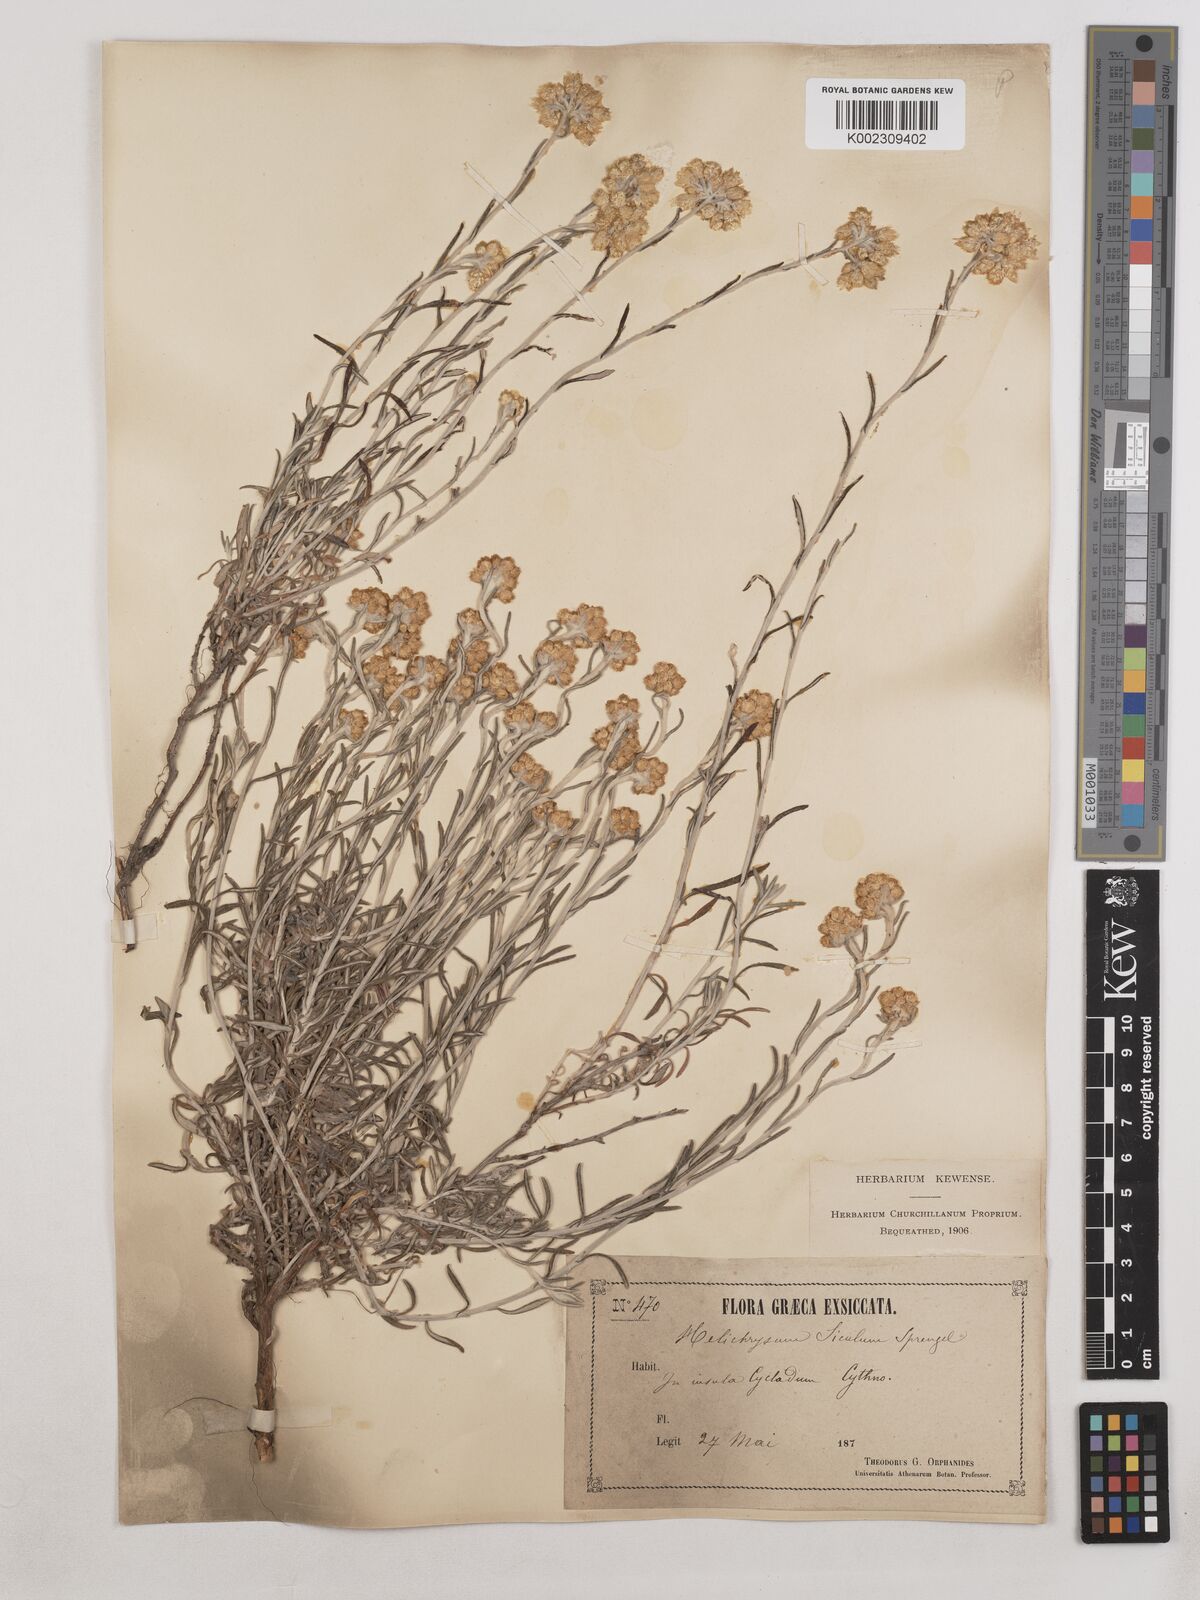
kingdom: Plantae
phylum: Tracheophyta
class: Magnoliopsida
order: Asterales
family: Asteraceae
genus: Helichrysum
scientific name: Helichrysum stoechas
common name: Goldilocks
